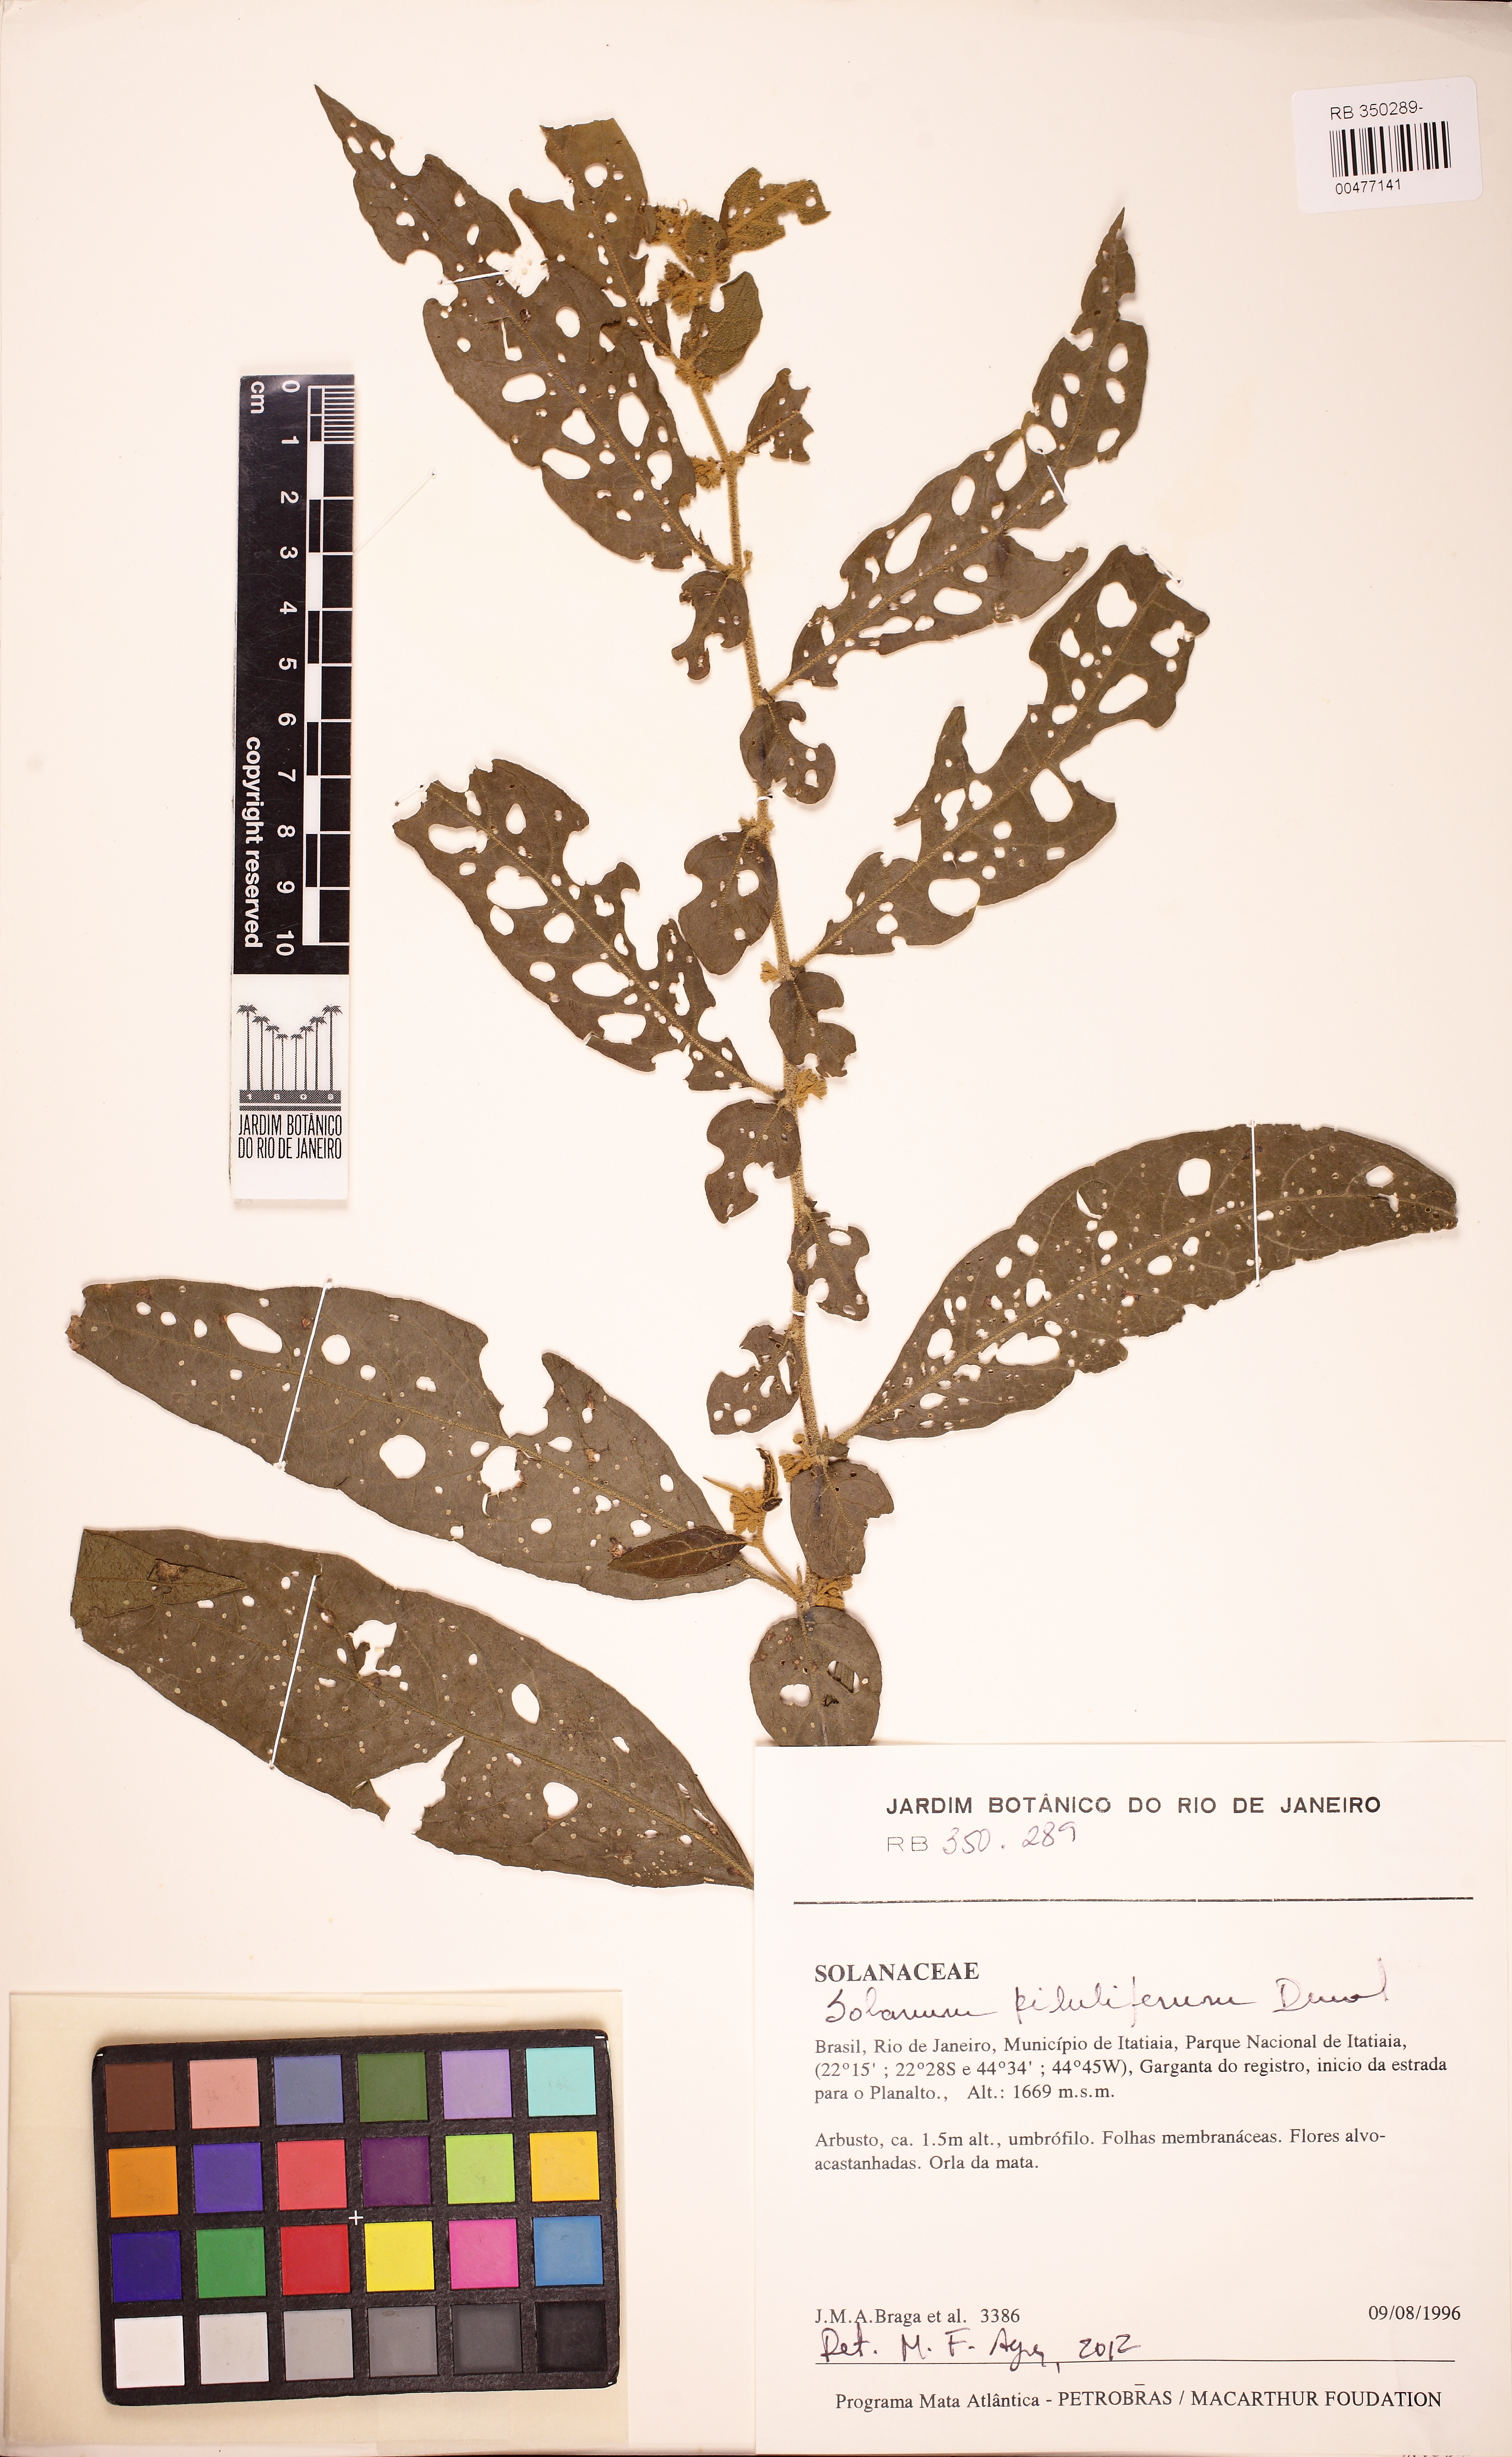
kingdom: Plantae
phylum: Tracheophyta
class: Magnoliopsida
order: Solanales
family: Solanaceae
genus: Solanum
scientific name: Solanum piluliferum
